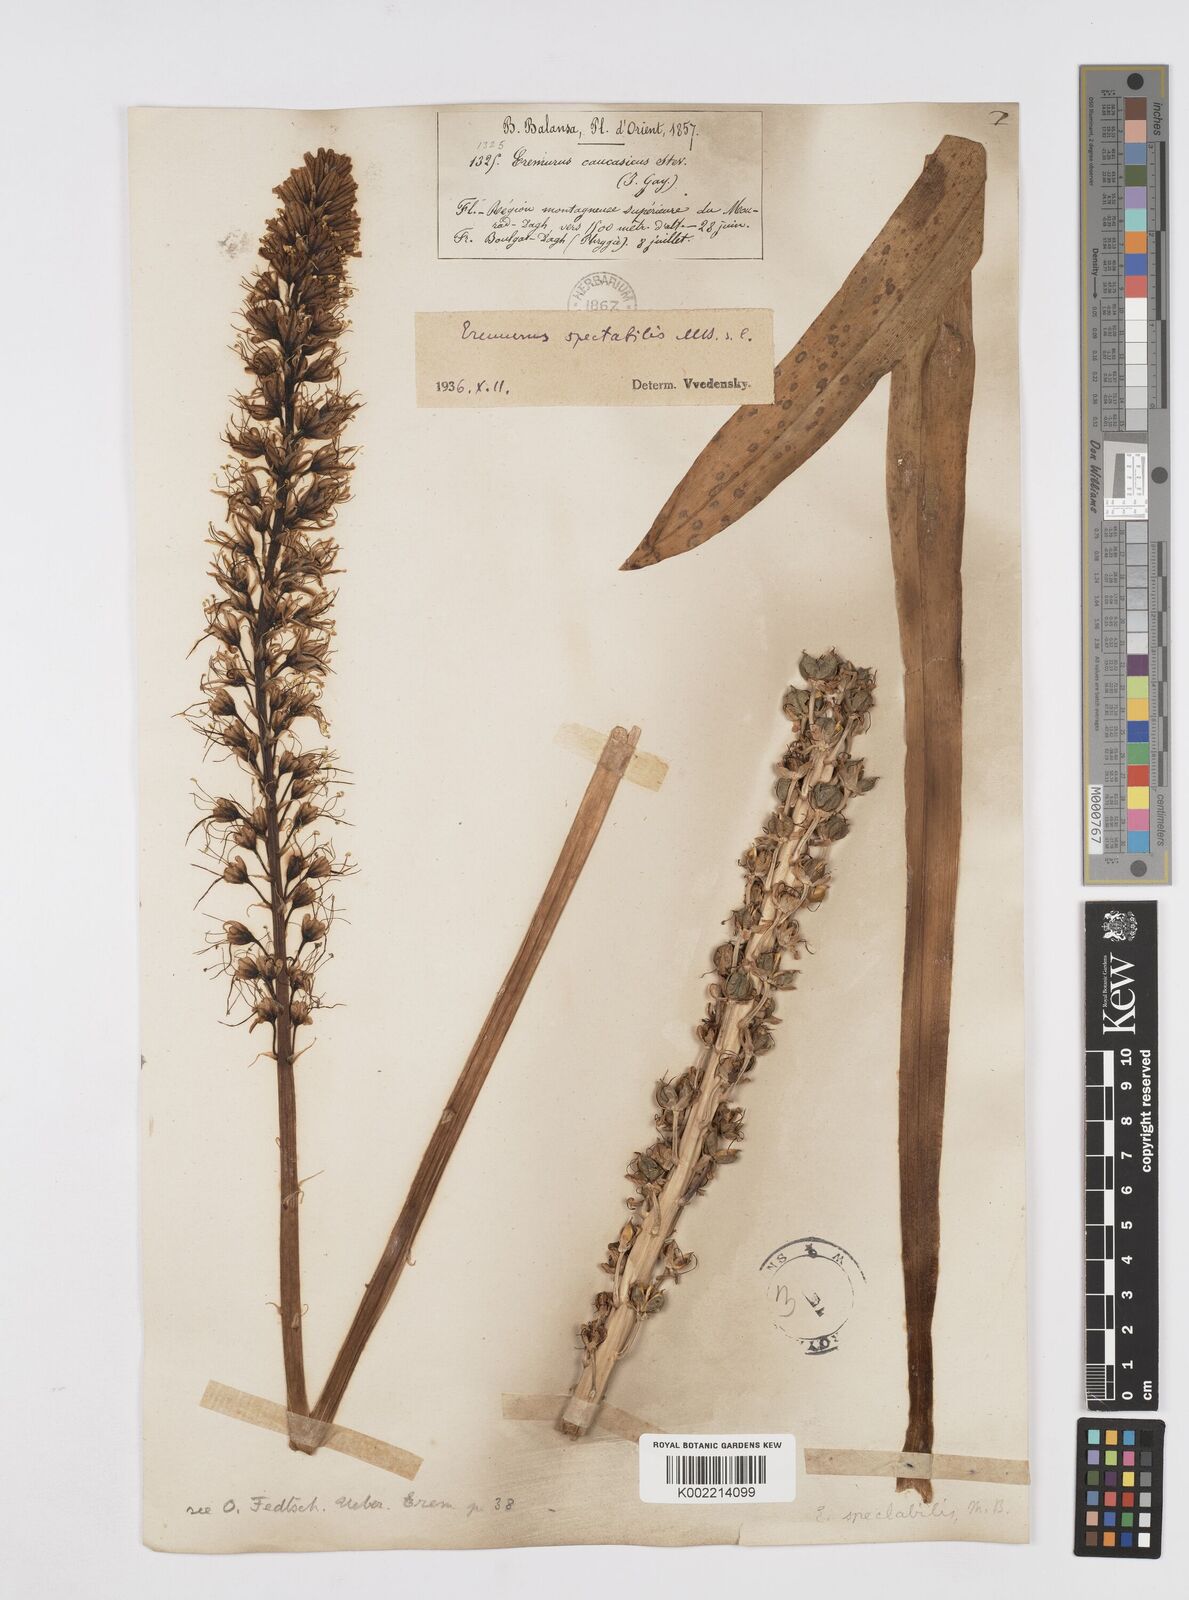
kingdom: Plantae
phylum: Tracheophyta
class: Liliopsida
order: Asparagales
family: Asphodelaceae
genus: Eremurus
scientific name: Eremurus spectabilis
